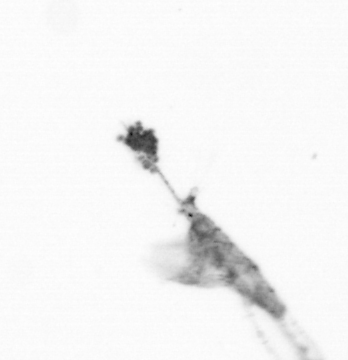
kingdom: Animalia
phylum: Arthropoda
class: Copepoda
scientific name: Copepoda
